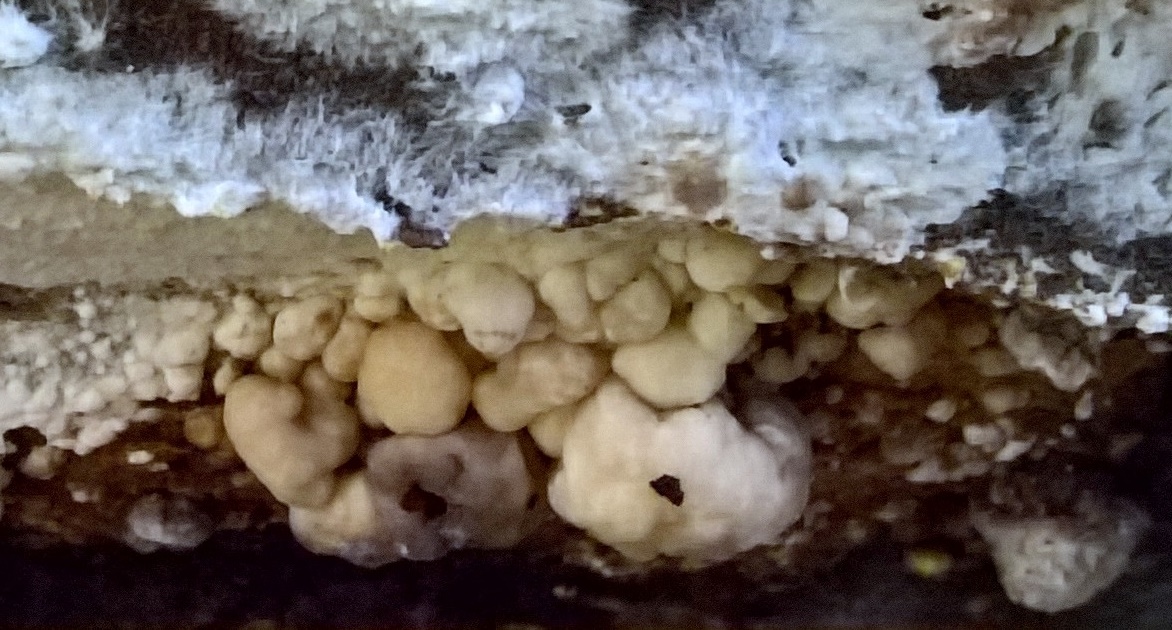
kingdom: Fungi
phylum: Ascomycota
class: Sordariomycetes
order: Xylariales
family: Hypoxylaceae
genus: Nodulisporium
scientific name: Nodulisporium cecidiogenes
